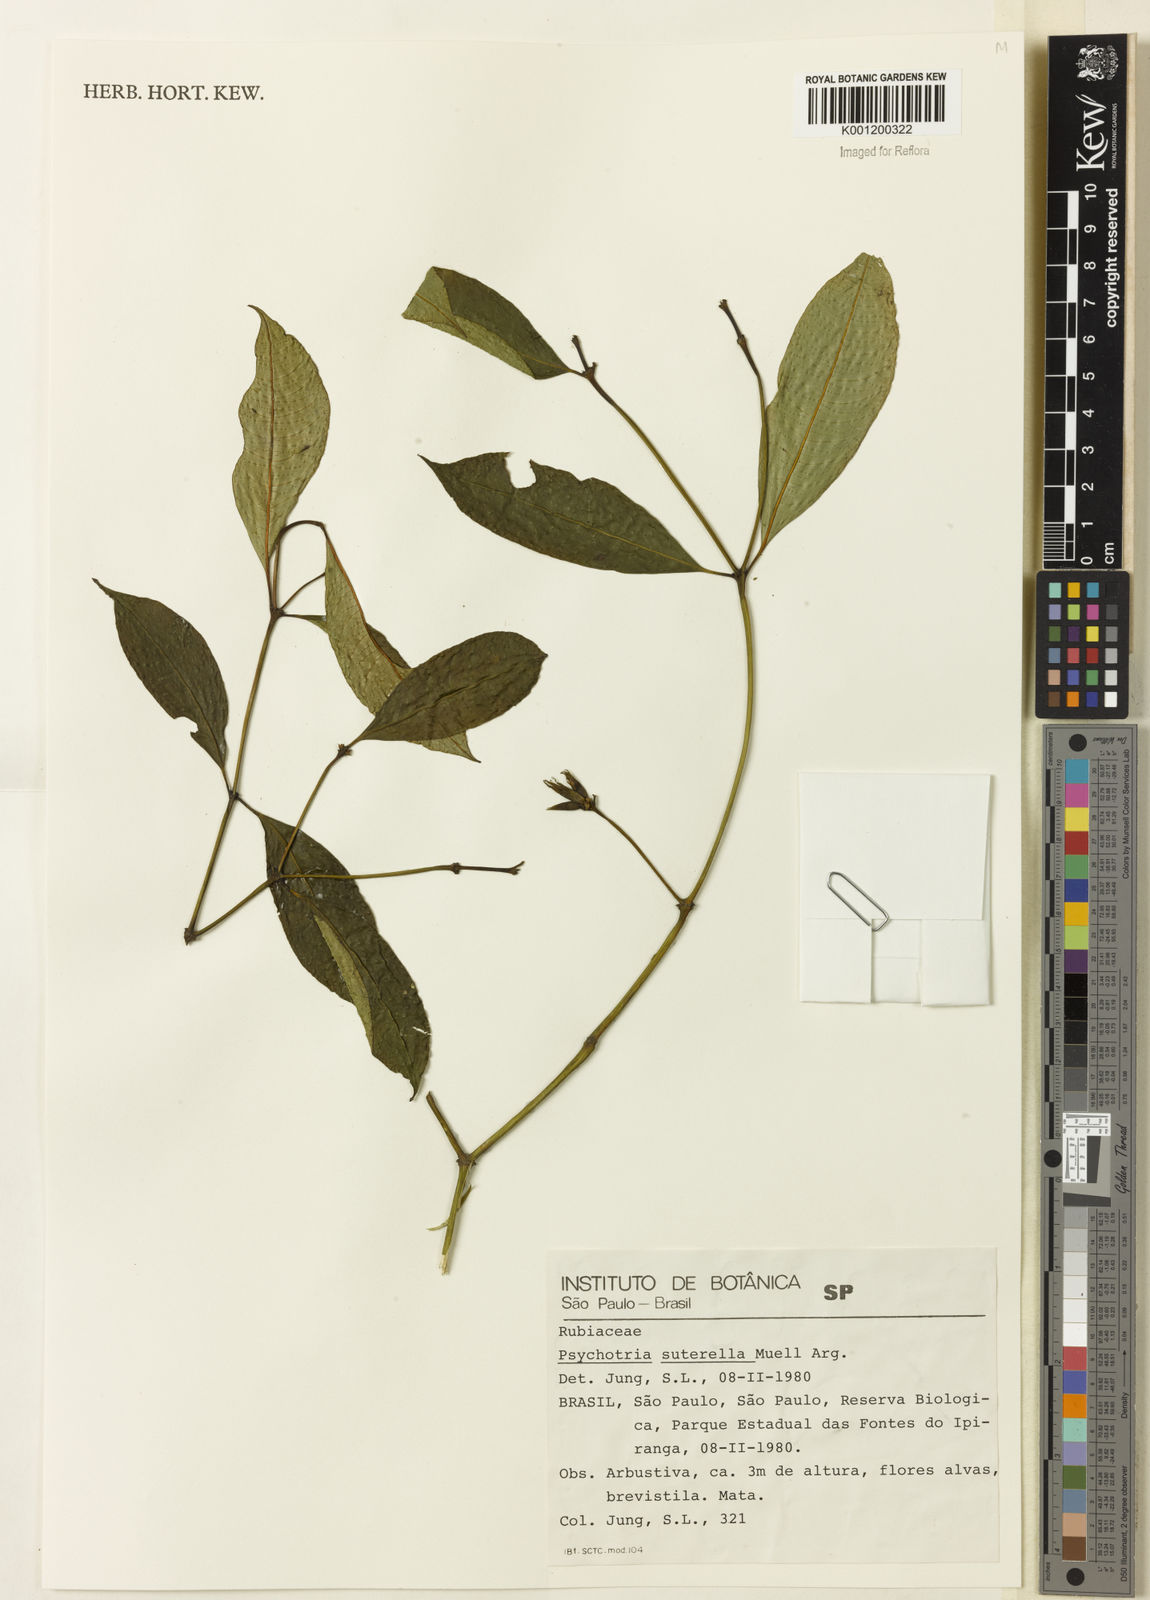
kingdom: Plantae
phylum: Tracheophyta
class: Magnoliopsida
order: Gentianales
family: Rubiaceae
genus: Psychotria
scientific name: Psychotria
